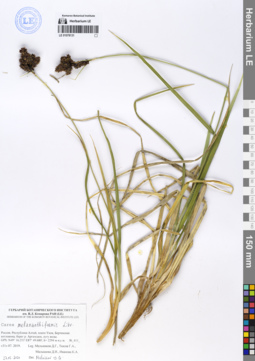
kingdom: Plantae
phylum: Tracheophyta
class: Liliopsida
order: Poales
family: Cyperaceae
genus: Carex
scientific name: Carex melananthiformis
